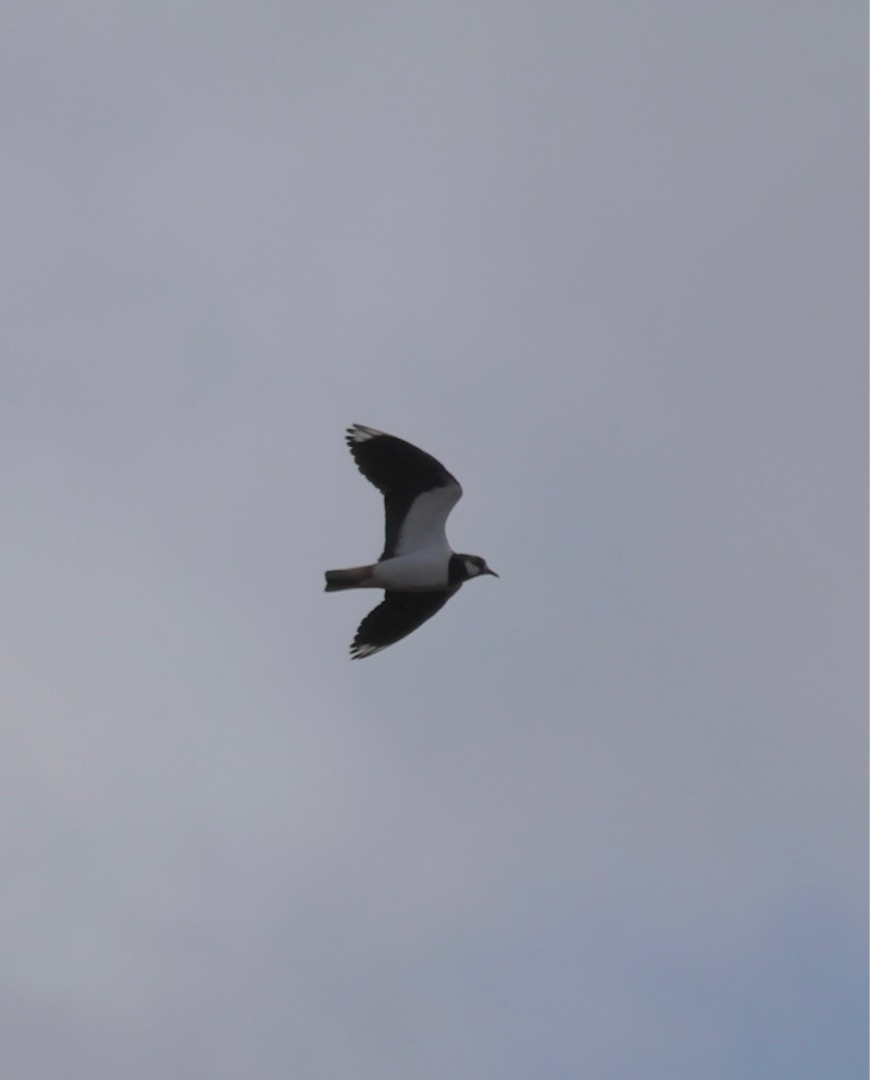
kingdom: Animalia
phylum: Chordata
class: Aves
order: Charadriiformes
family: Charadriidae
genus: Vanellus
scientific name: Vanellus vanellus
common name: Vibe
